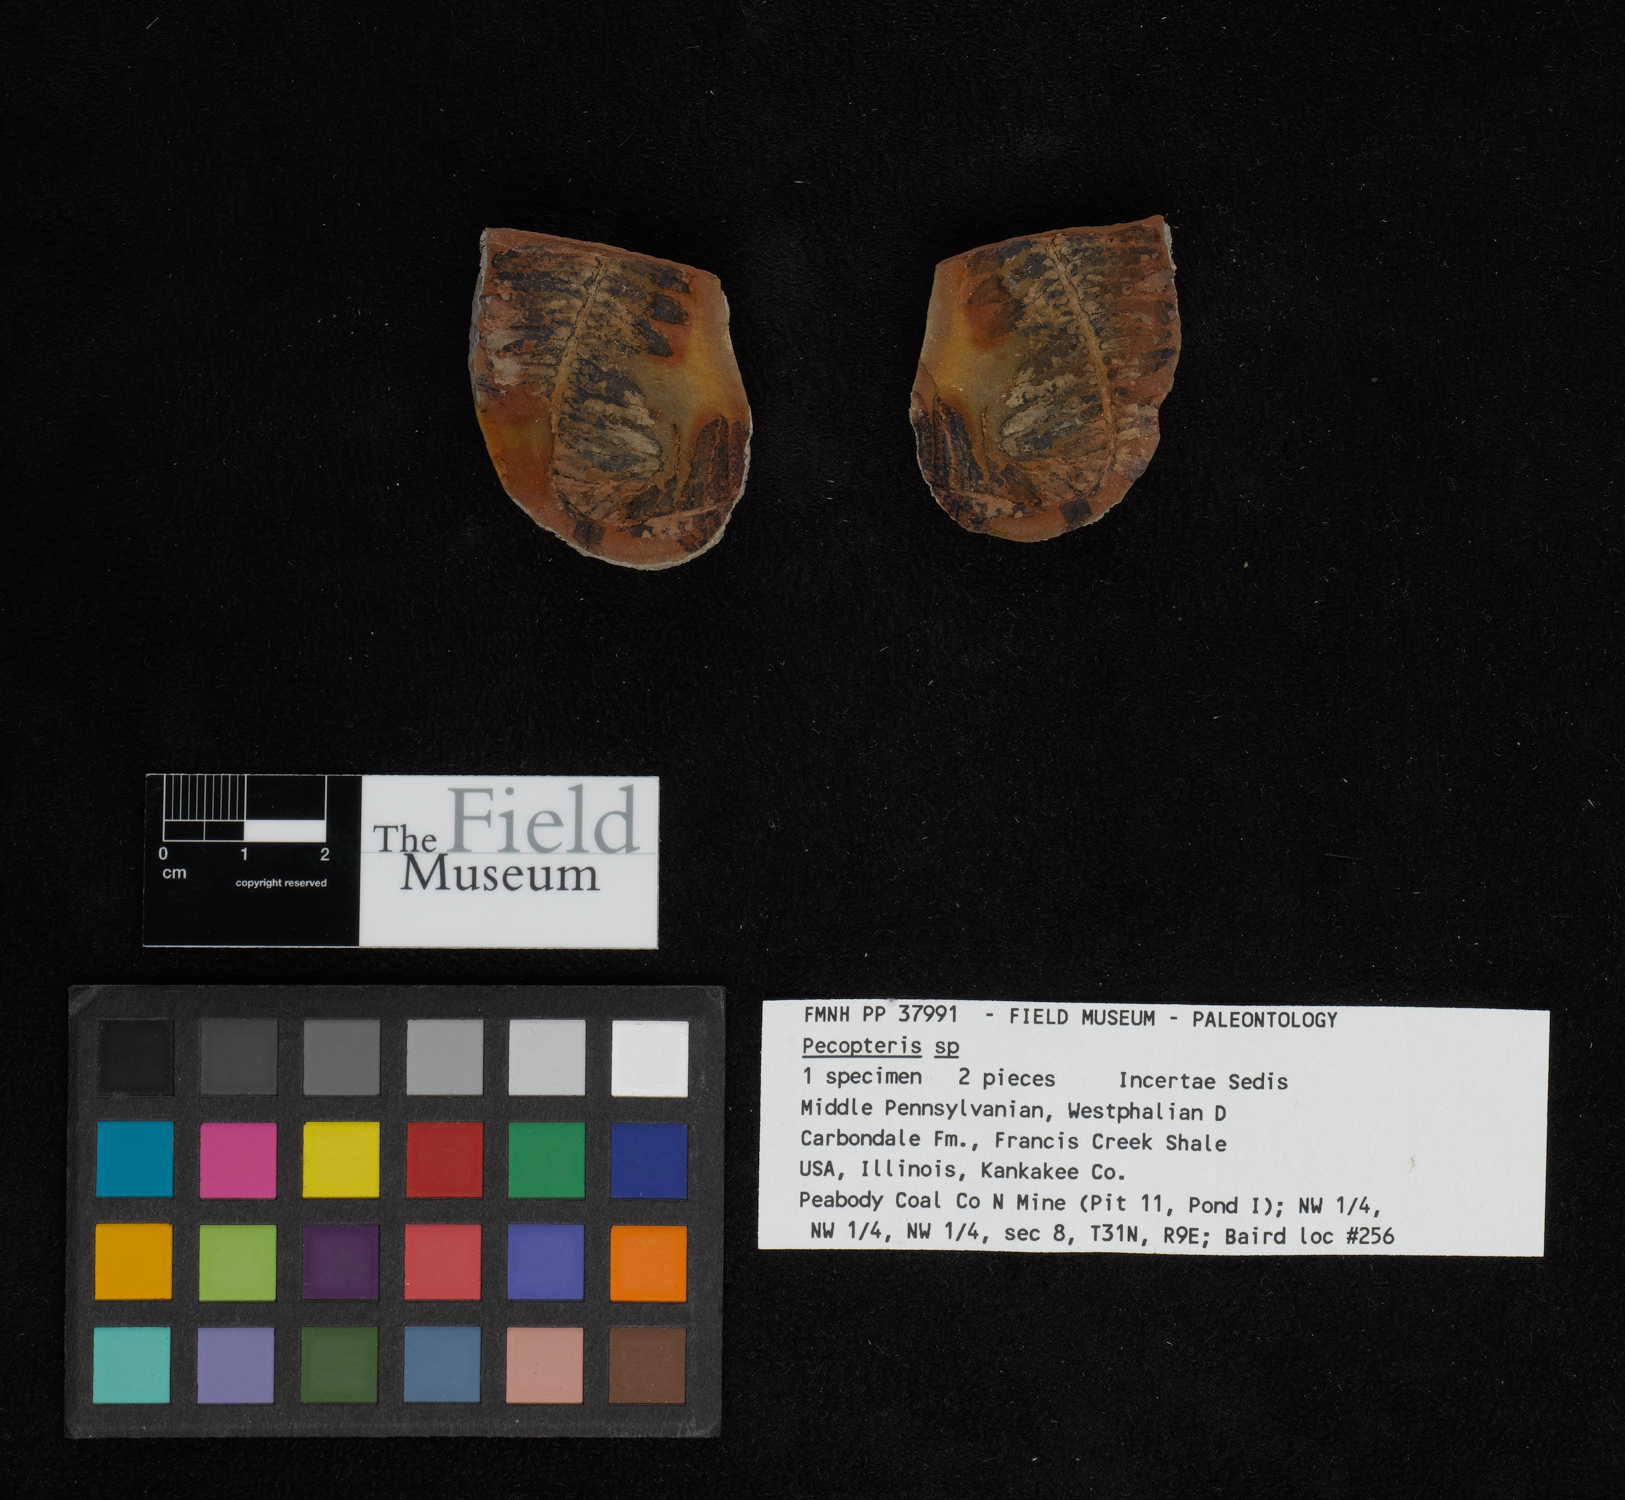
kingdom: Plantae
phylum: Tracheophyta
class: Polypodiopsida
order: Marattiales
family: Asterothecaceae
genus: Pecopteris
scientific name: Pecopteris
